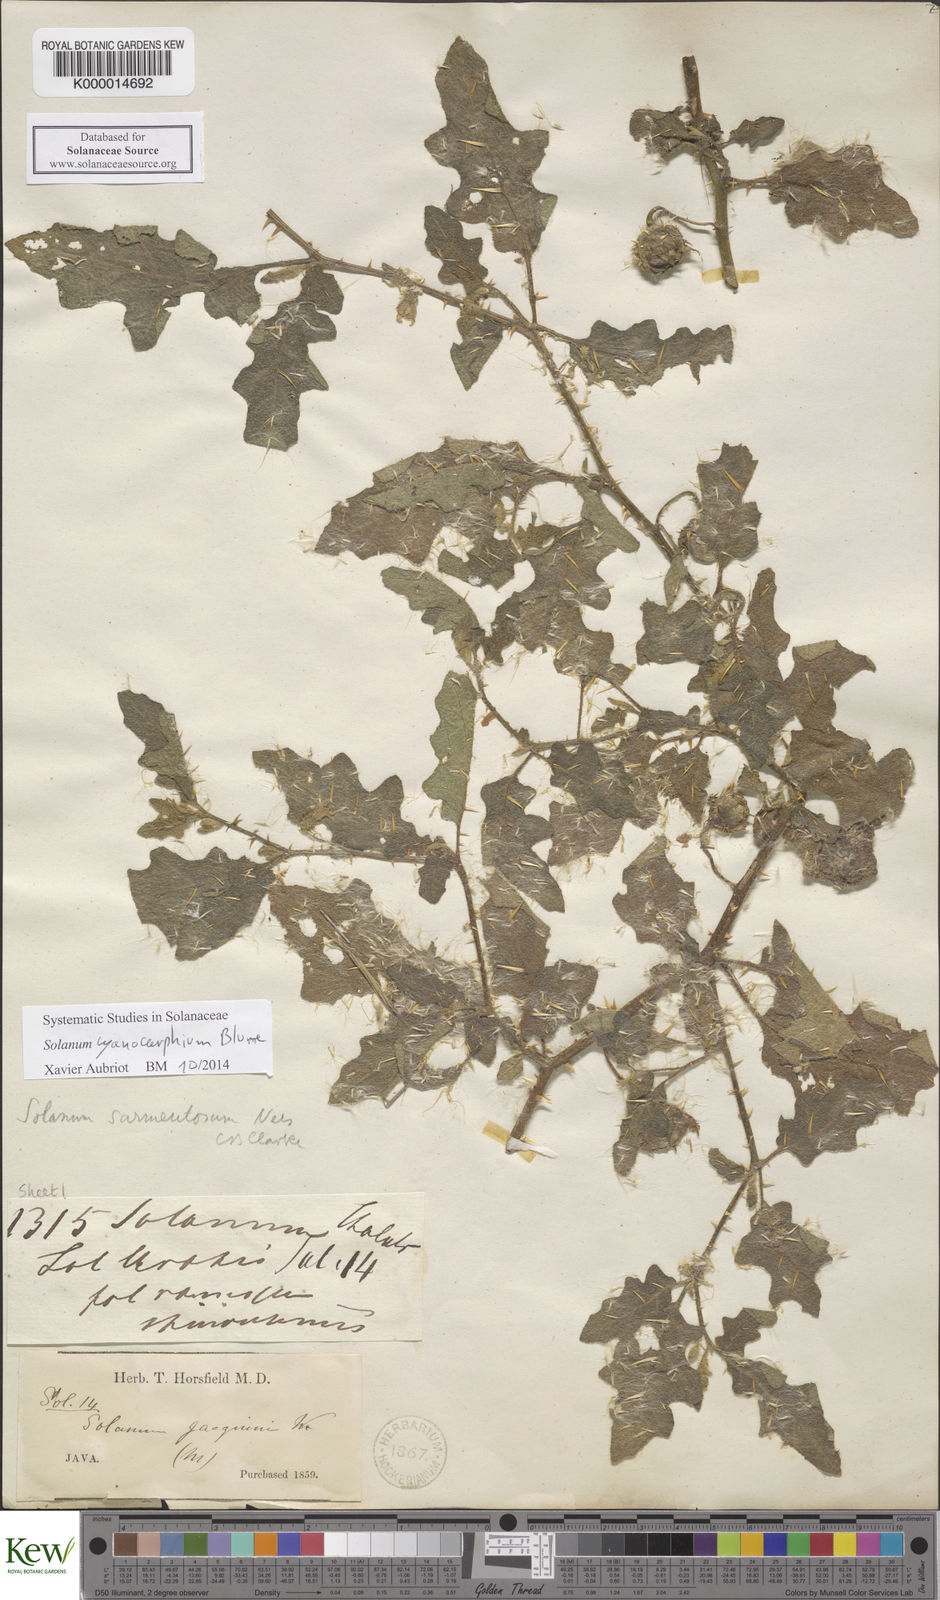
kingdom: Plantae
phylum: Tracheophyta
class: Magnoliopsida
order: Solanales
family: Solanaceae
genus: Solanum
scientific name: Solanum cyanocarphium
